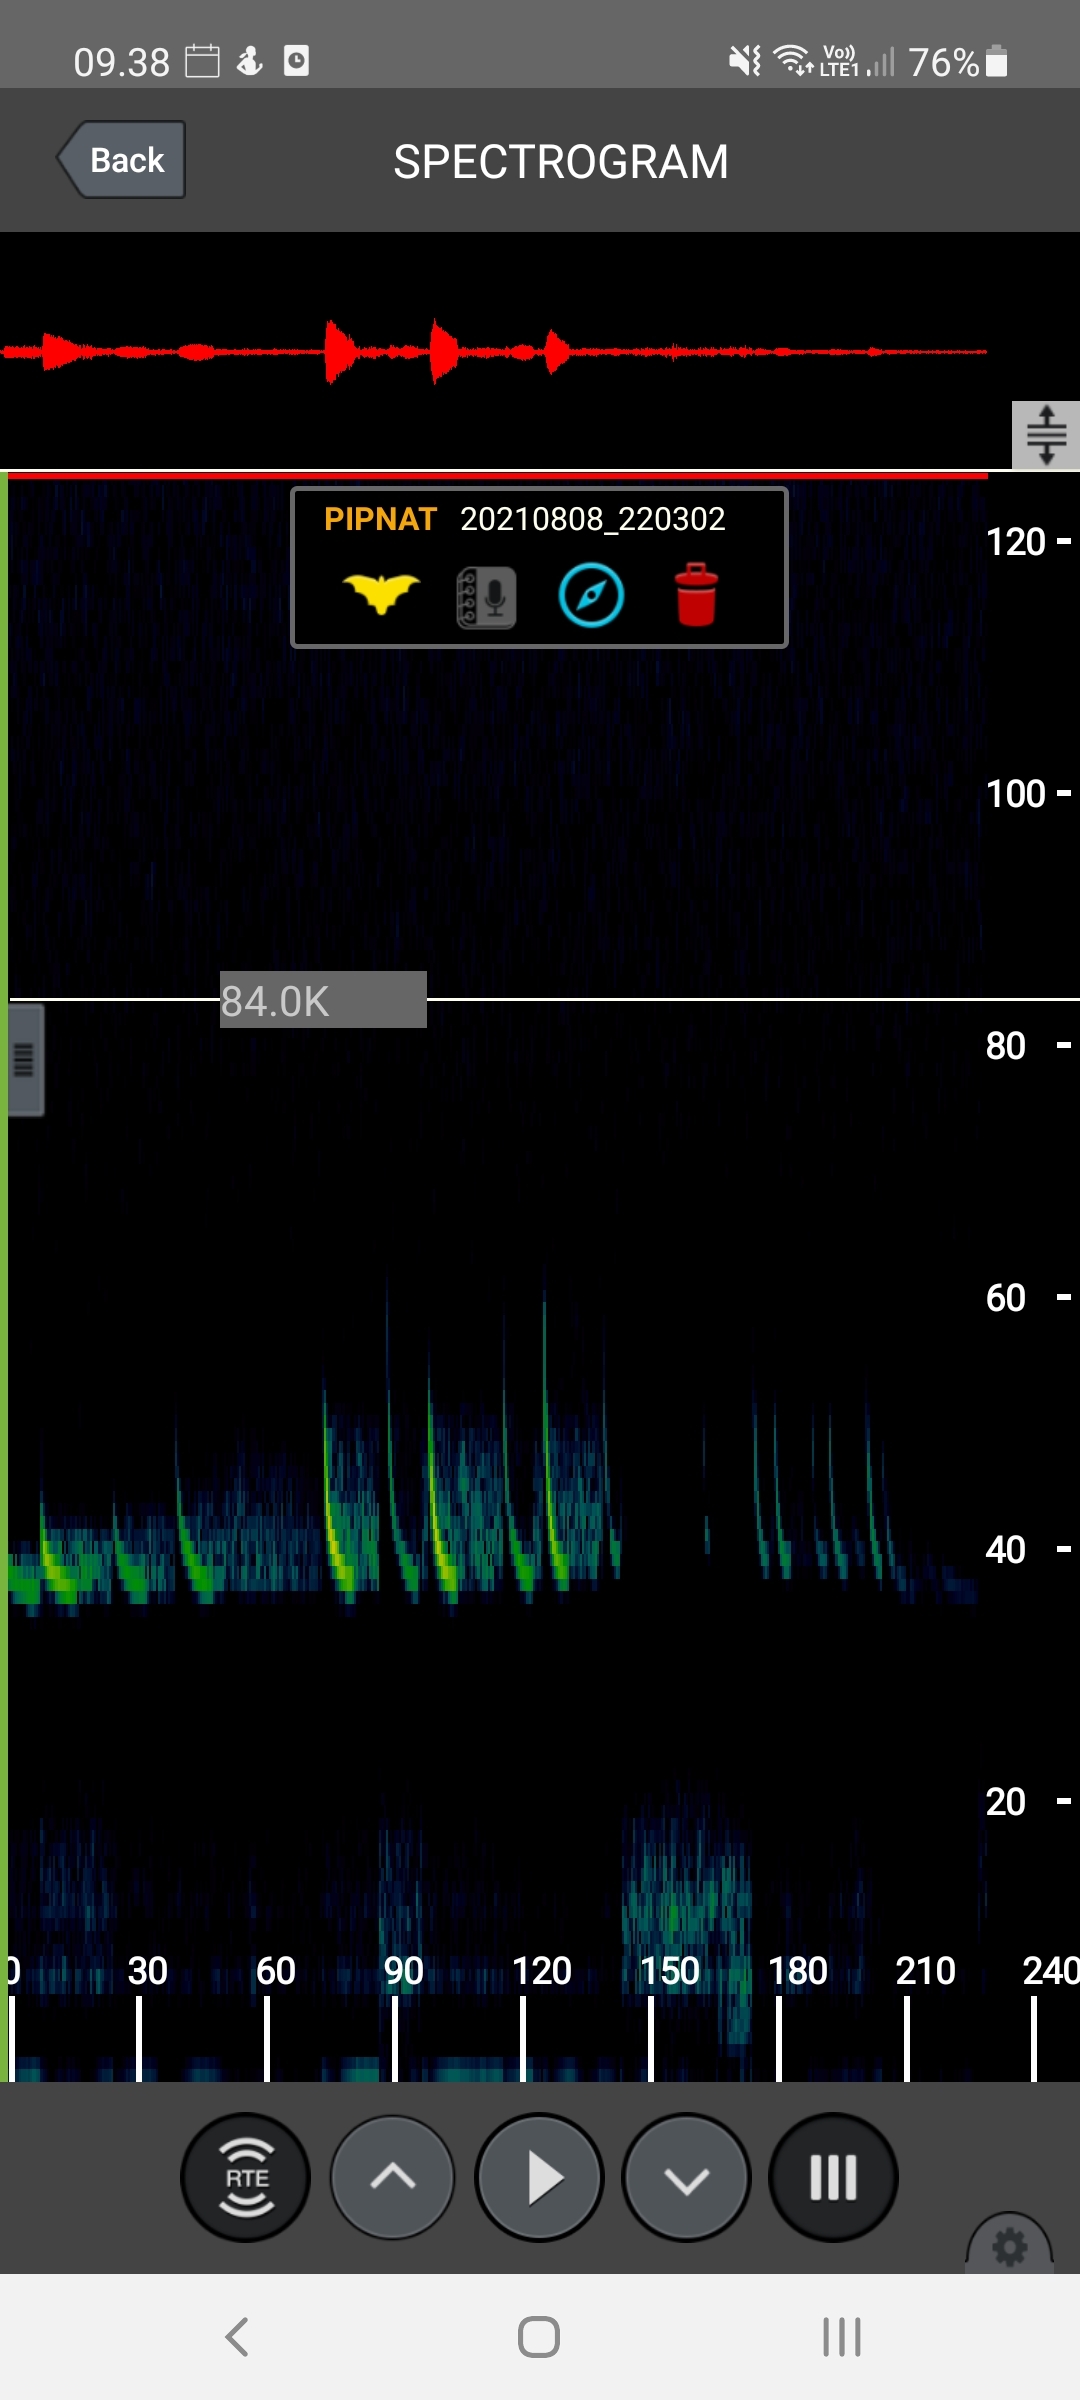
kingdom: Animalia
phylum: Chordata
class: Mammalia
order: Chiroptera
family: Vespertilionidae
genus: Pipistrellus
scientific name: Pipistrellus nathusii
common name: Troldflagermus
